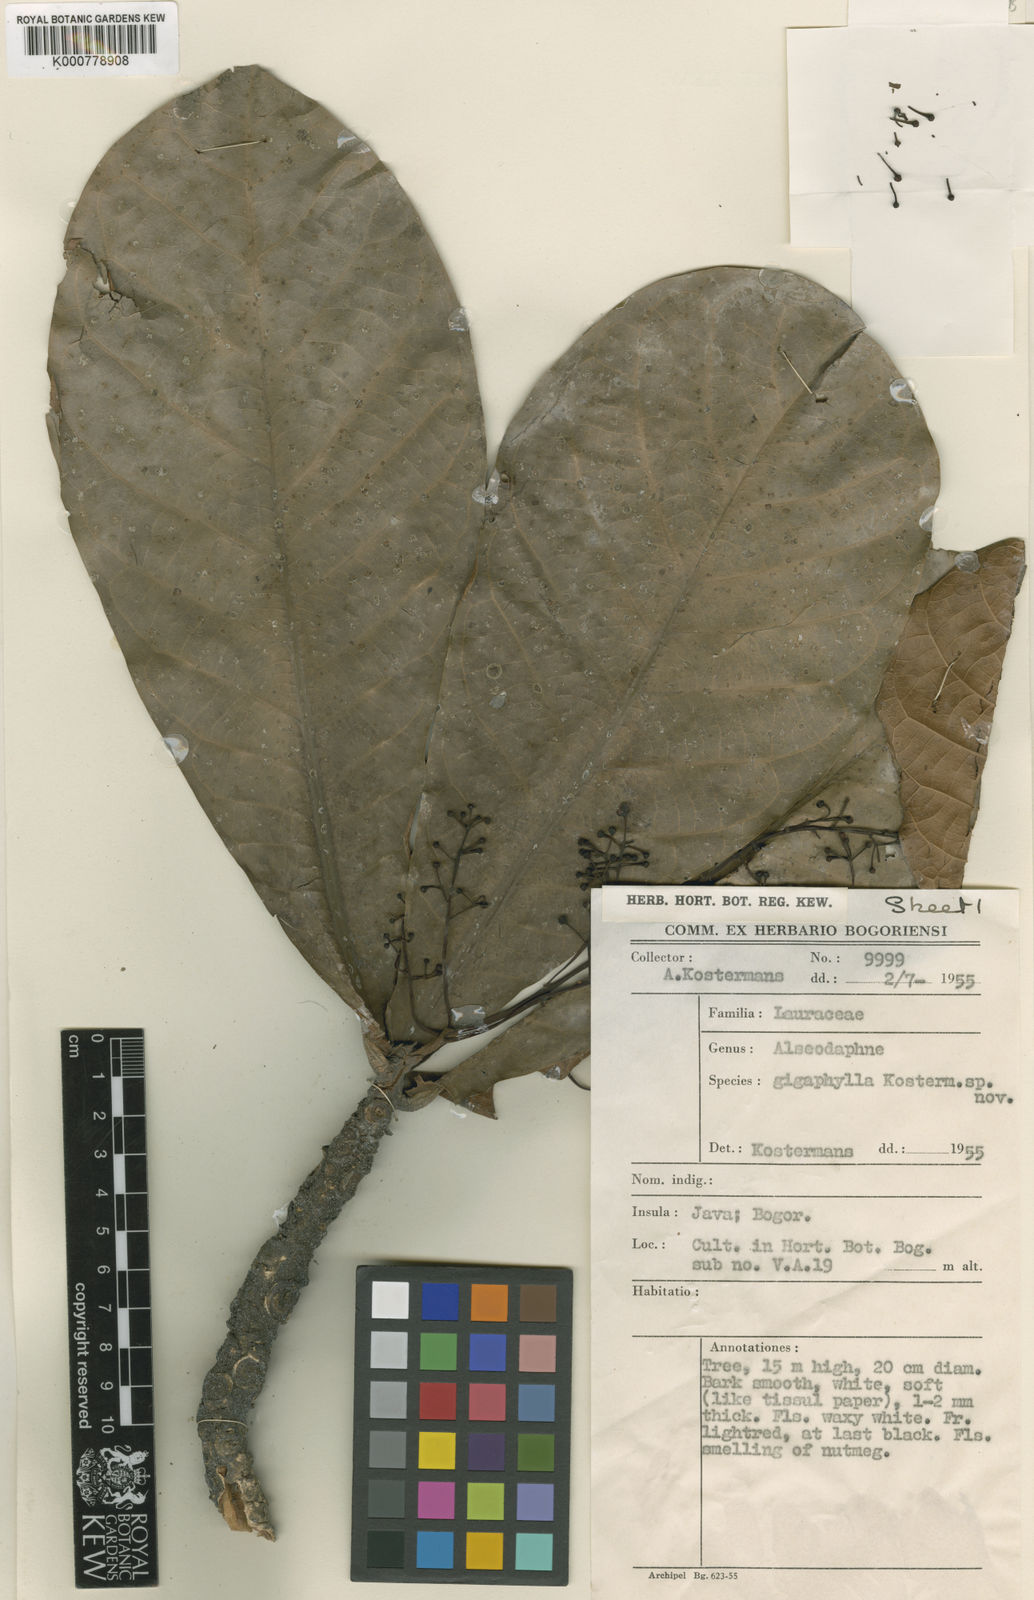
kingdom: Plantae
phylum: Tracheophyta
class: Magnoliopsida
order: Laurales
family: Lauraceae
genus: Nothaphoebe
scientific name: Nothaphoebe gigaphylla
